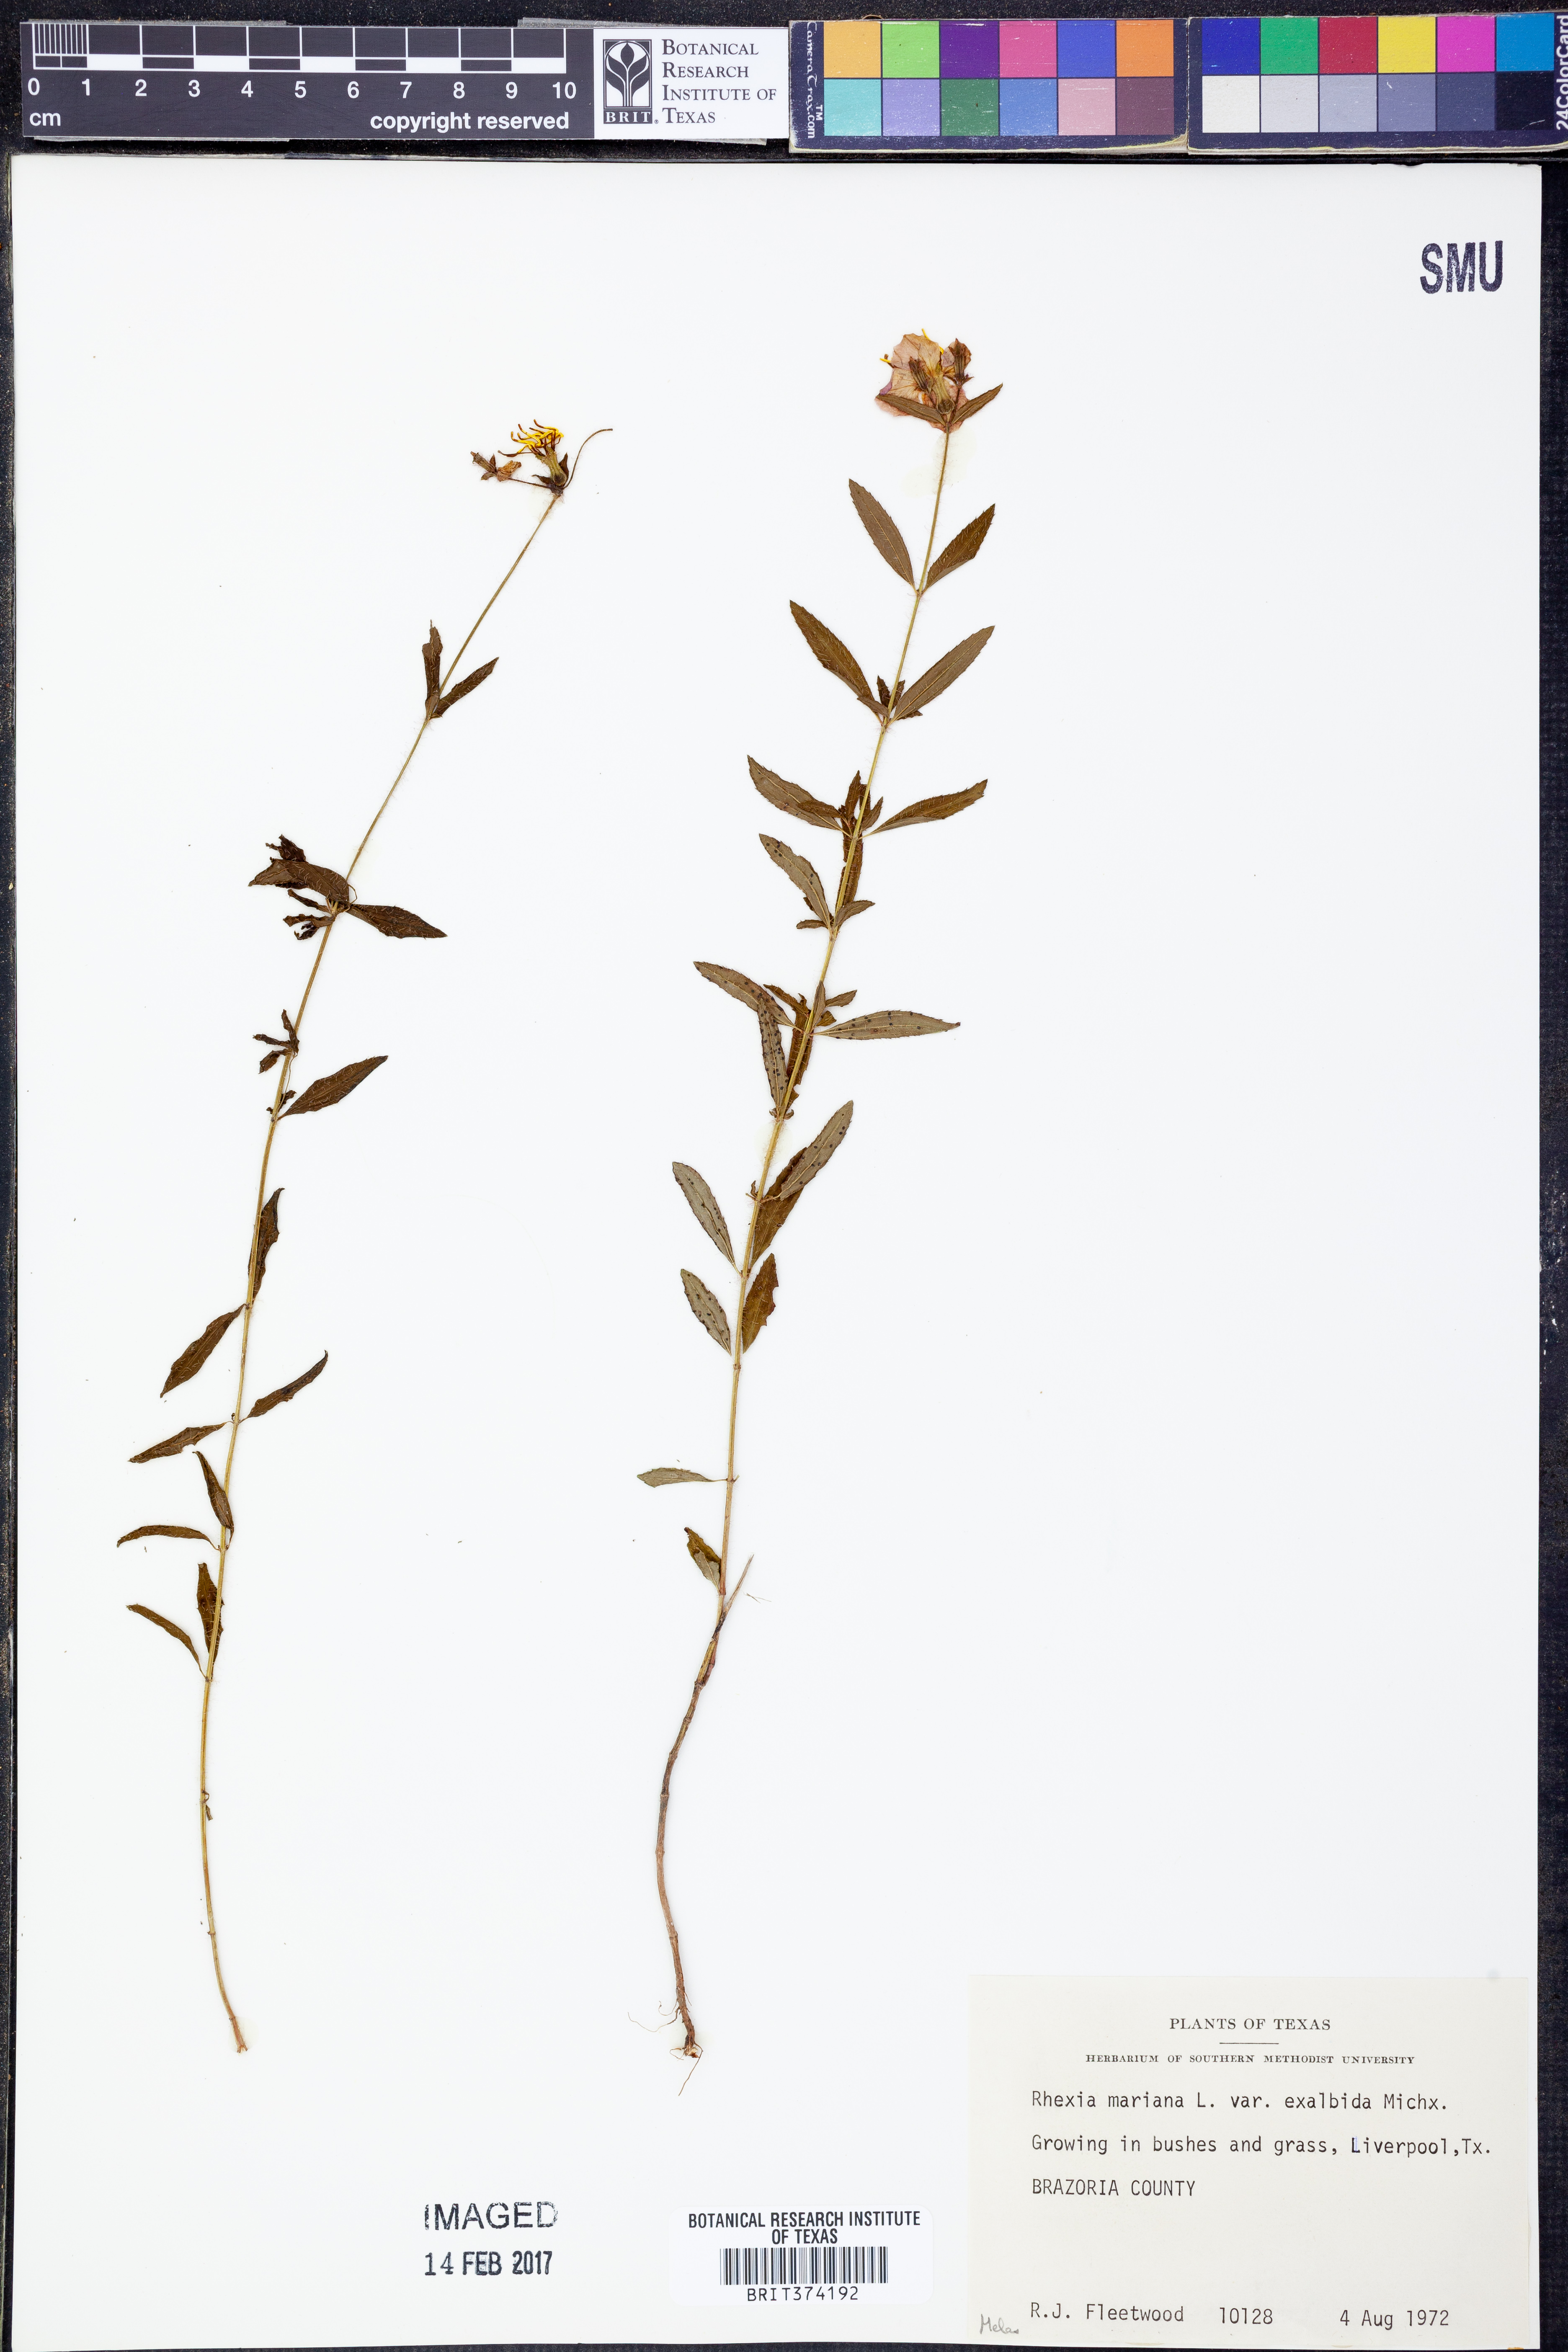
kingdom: Plantae
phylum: Tracheophyta
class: Magnoliopsida
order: Myrtales
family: Melastomataceae
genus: Rhexia
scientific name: Rhexia mariana
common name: Dull meadow-pitcher
